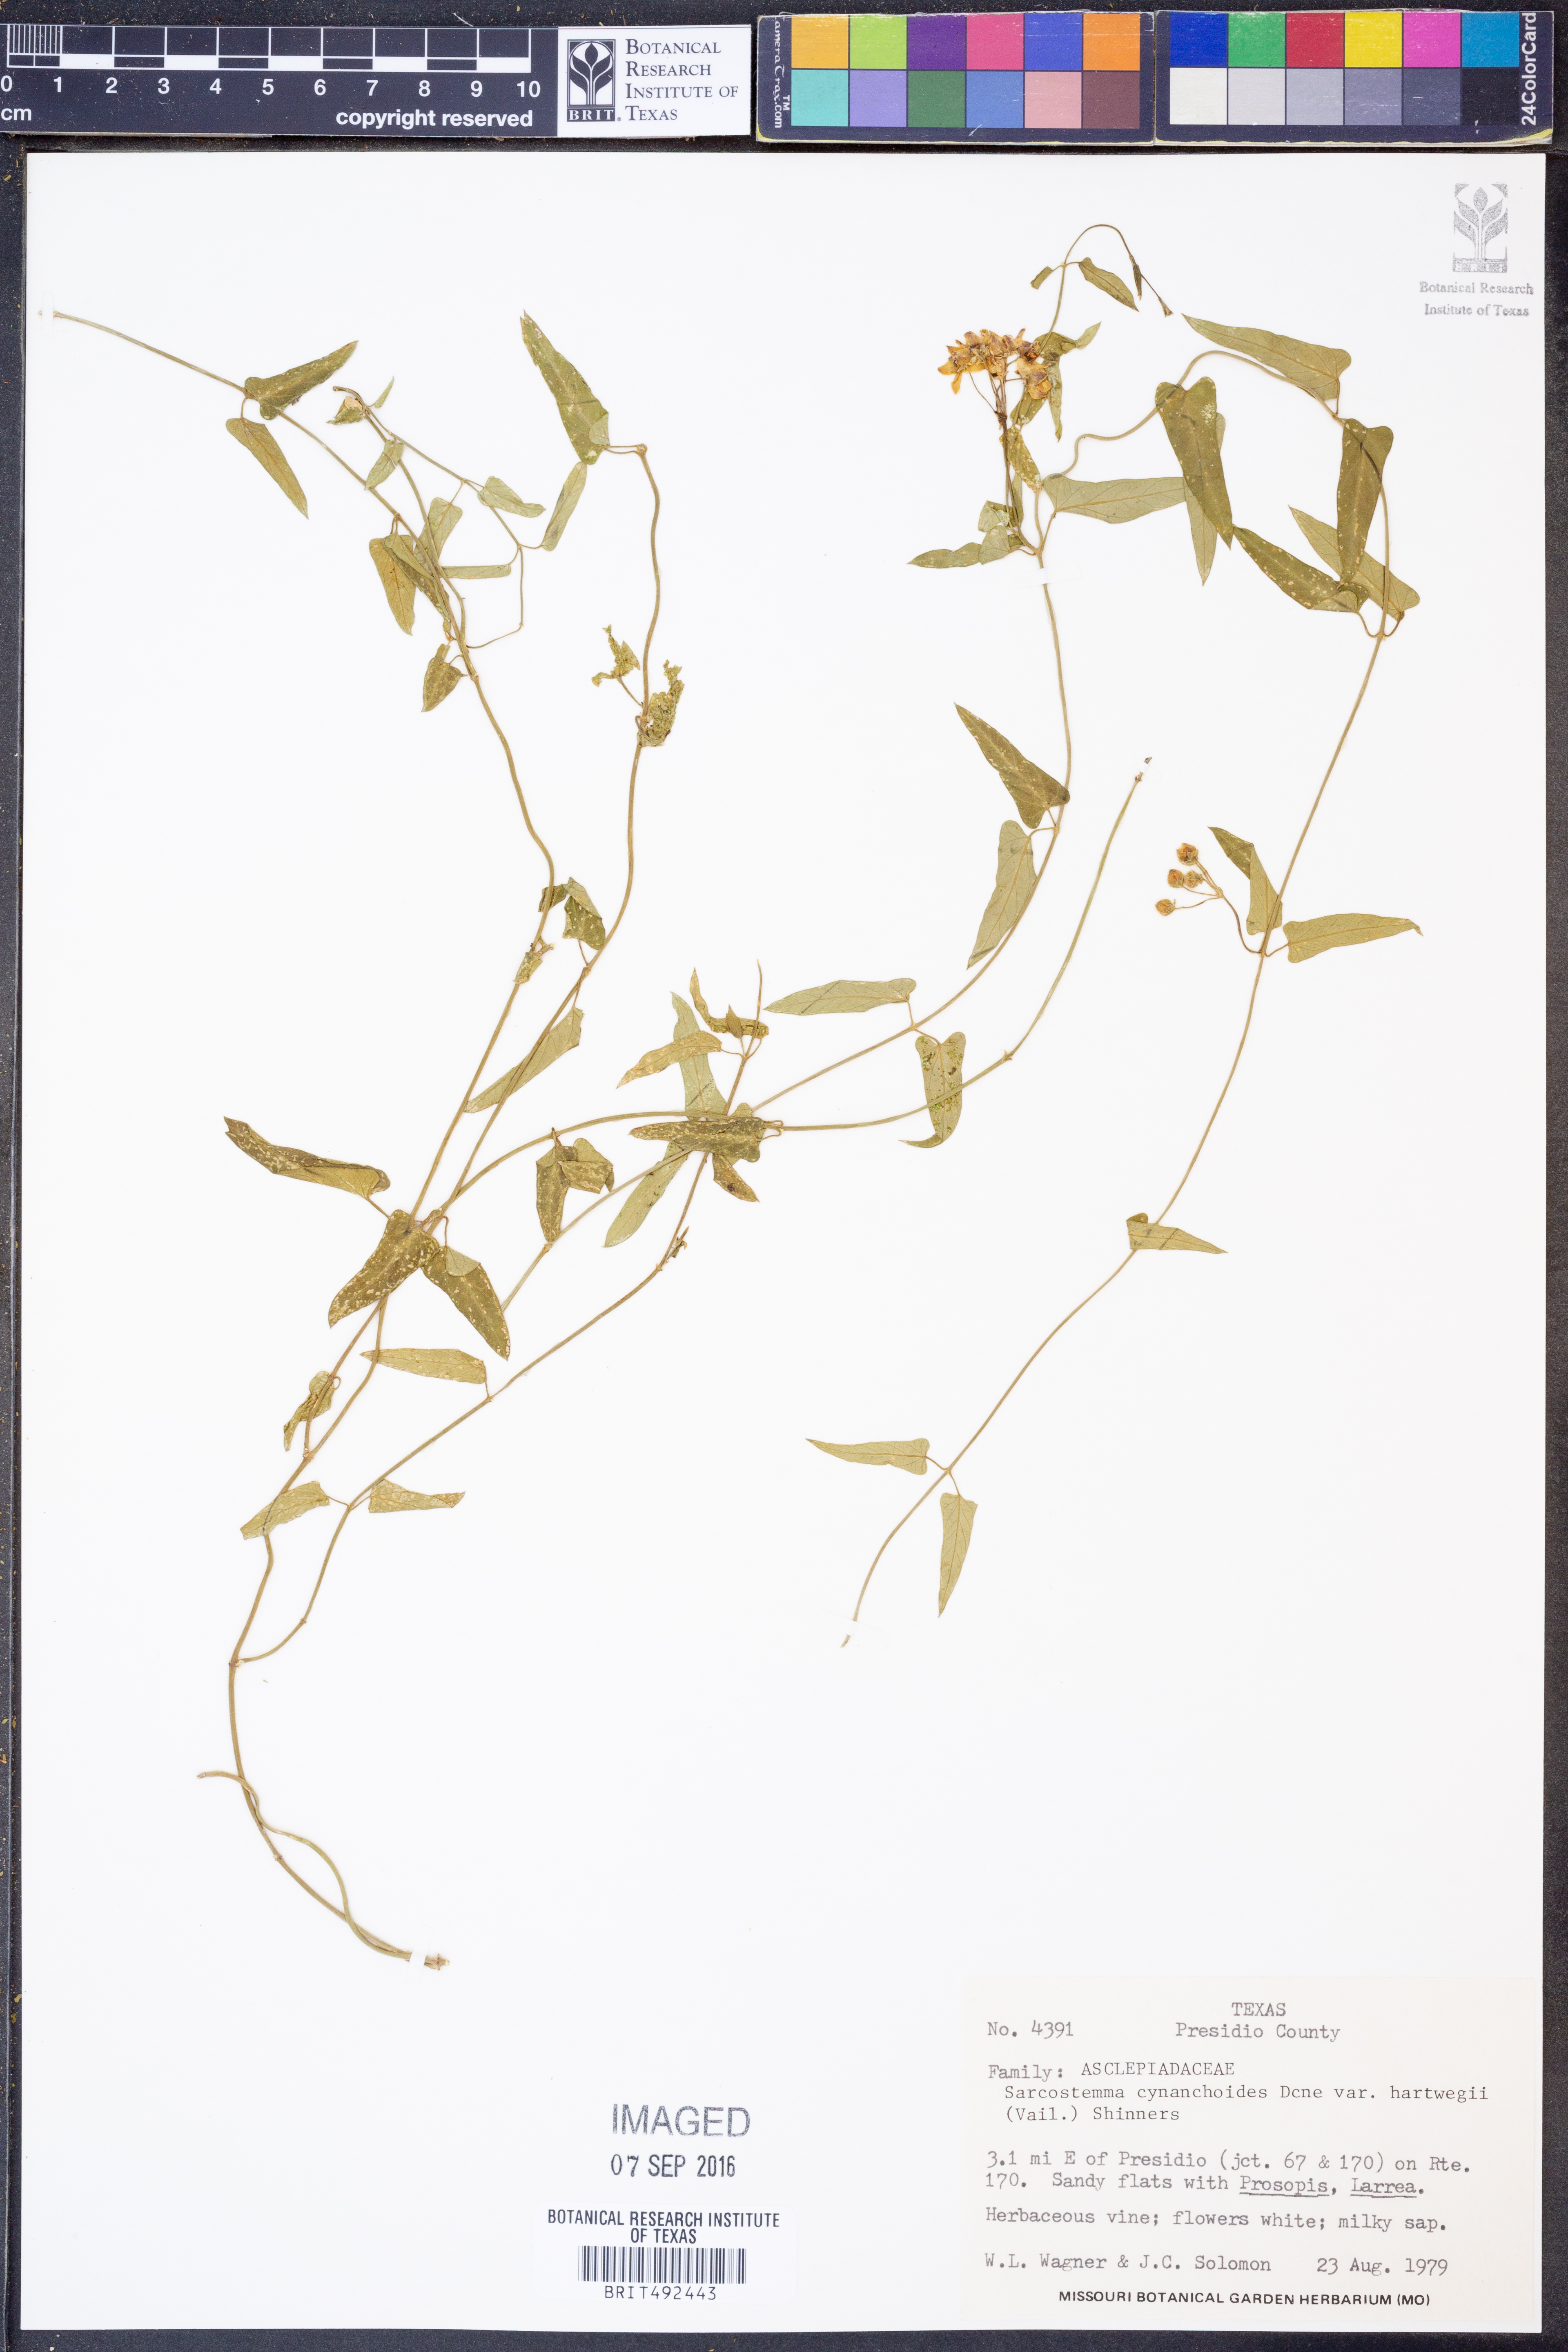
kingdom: Plantae
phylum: Tracheophyta
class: Magnoliopsida
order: Gentianales
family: Apocynaceae
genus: Funastrum
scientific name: Funastrum heterophyllum
